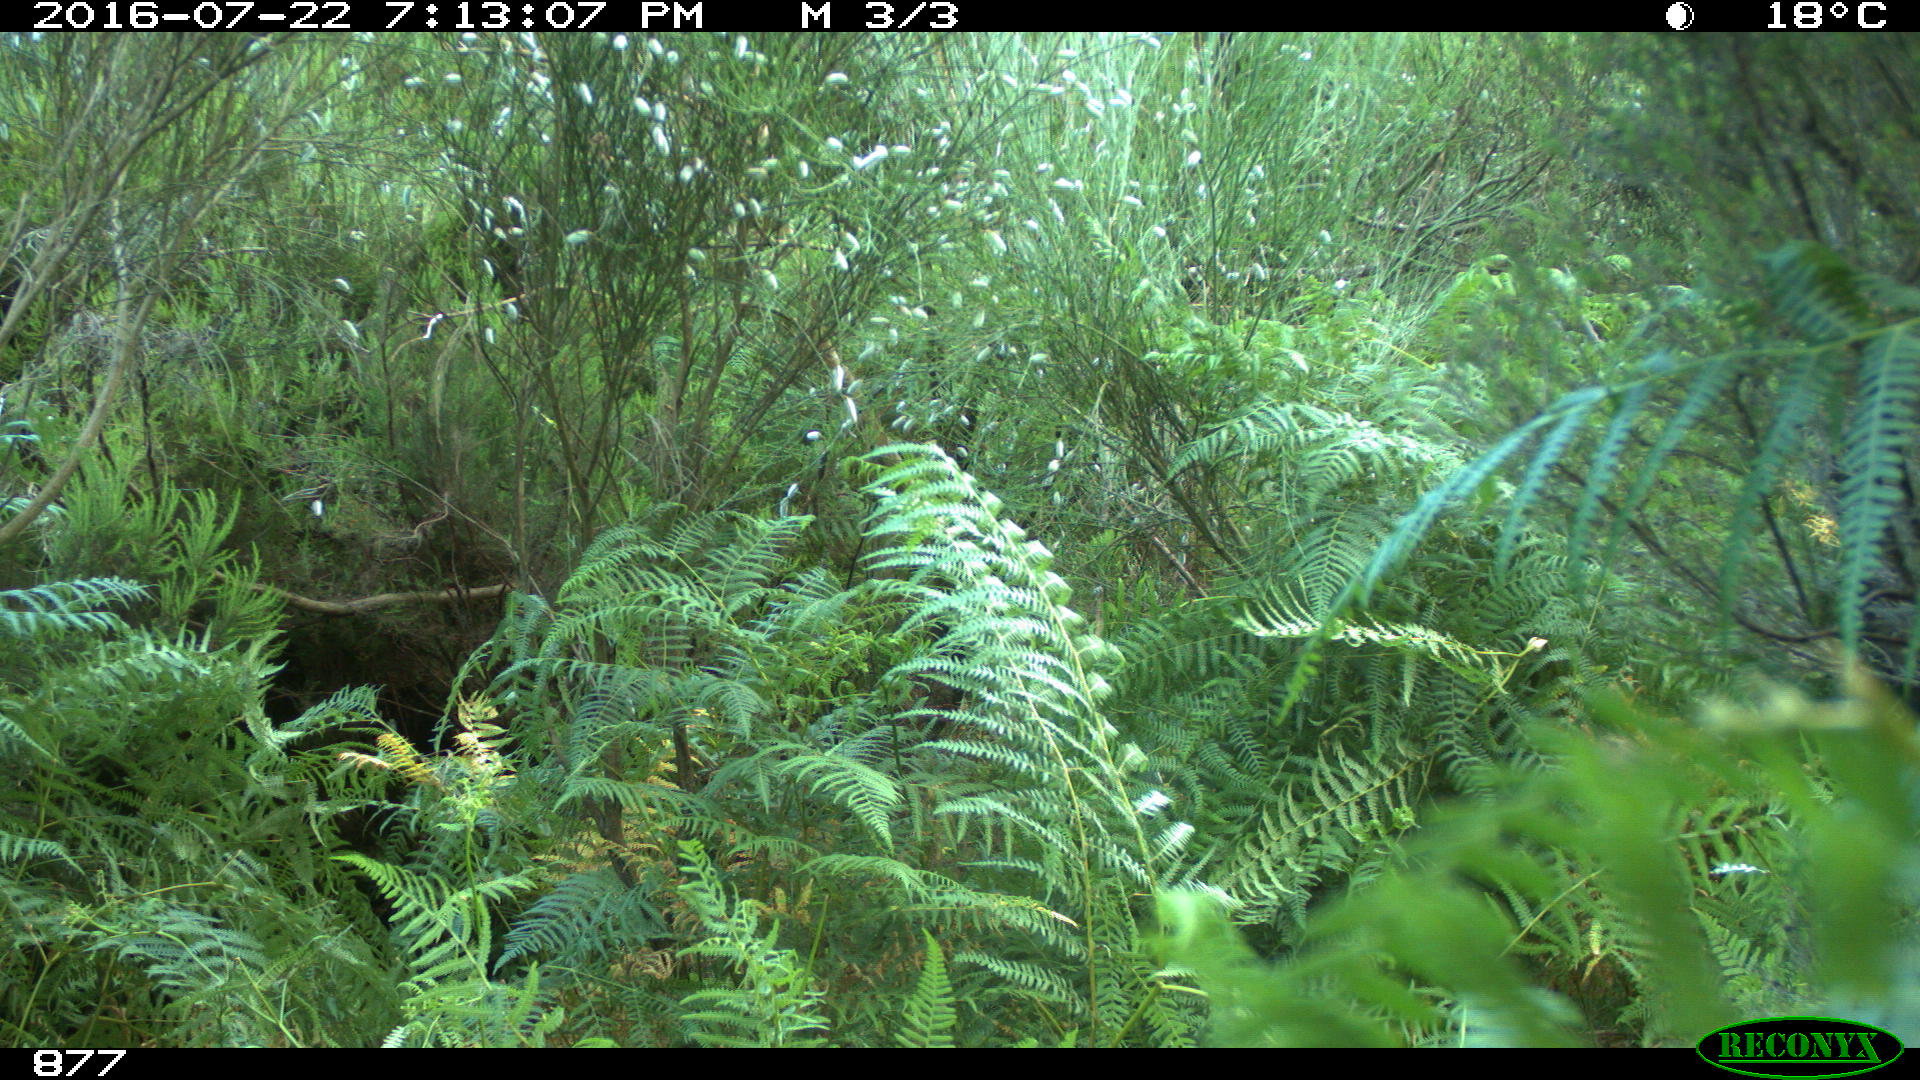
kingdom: Animalia
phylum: Chordata
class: Mammalia
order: Artiodactyla
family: Bovidae
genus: Bos
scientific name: Bos taurus
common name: Domesticated cattle
